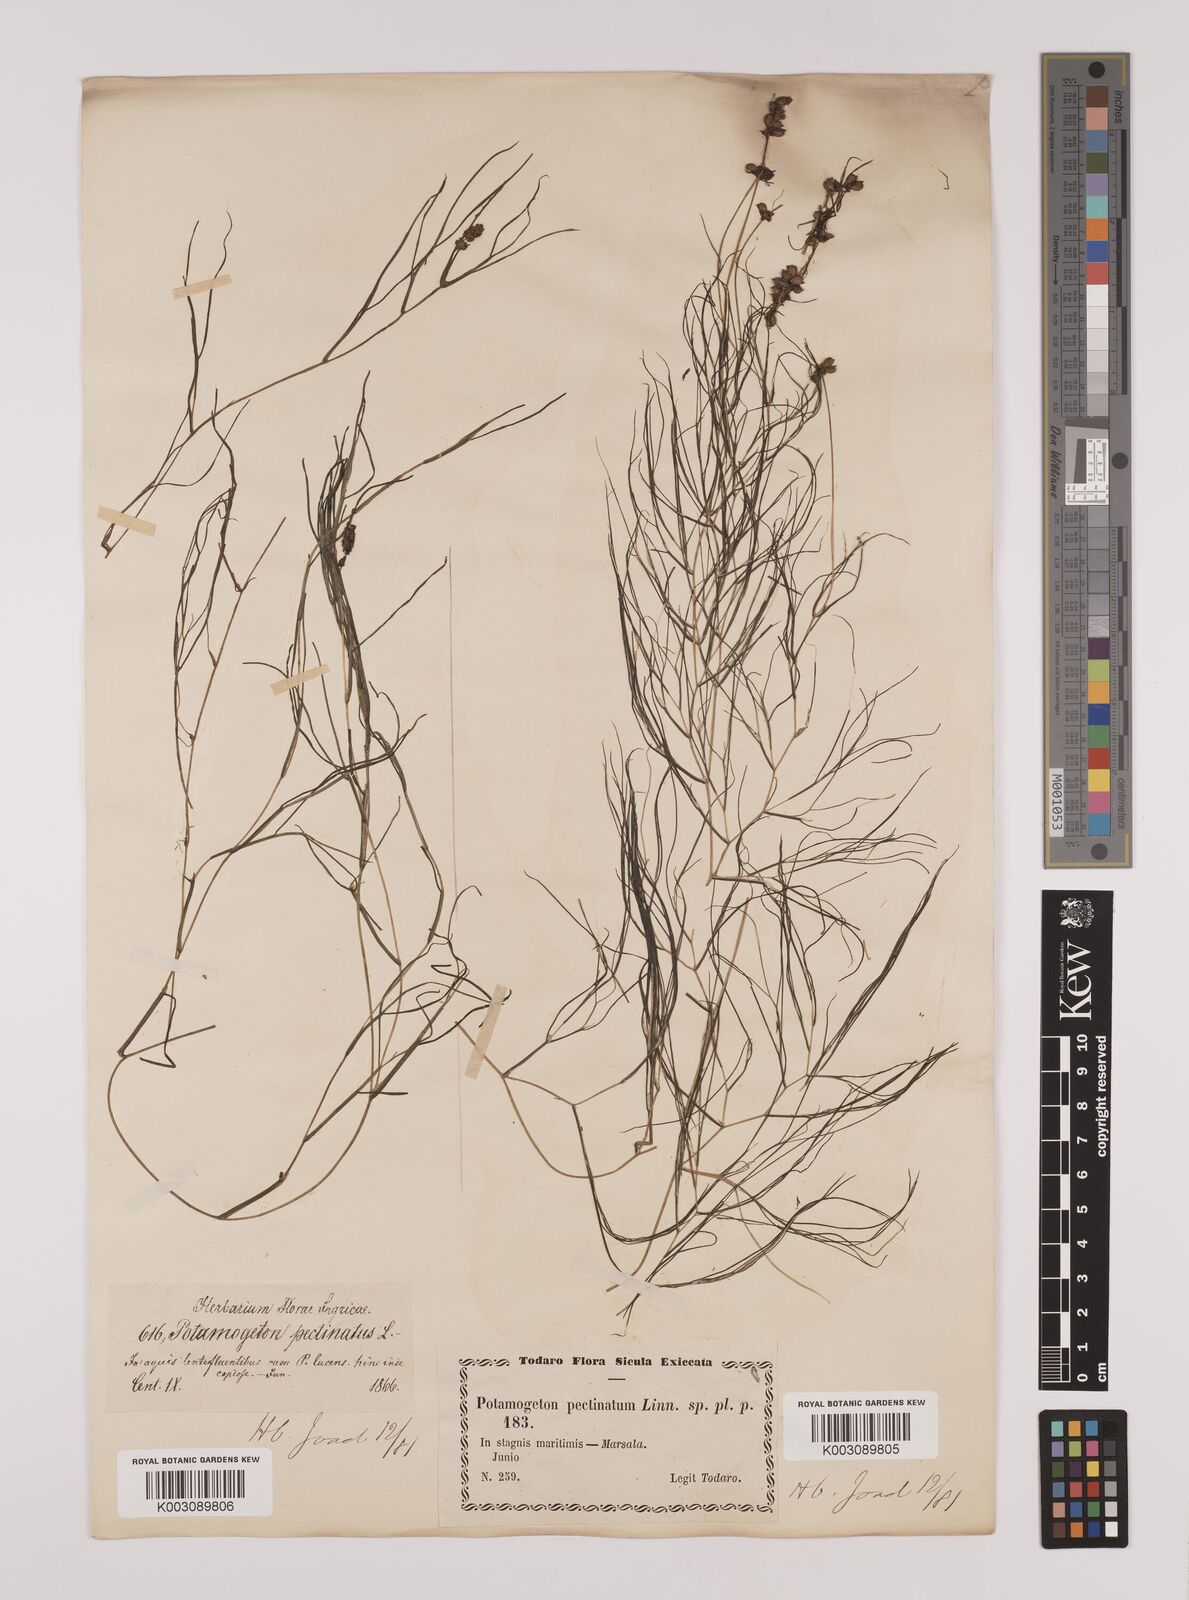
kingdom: Plantae
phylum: Tracheophyta
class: Liliopsida
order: Alismatales
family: Potamogetonaceae
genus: Stuckenia
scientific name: Stuckenia pectinata
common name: Sago pondweed
